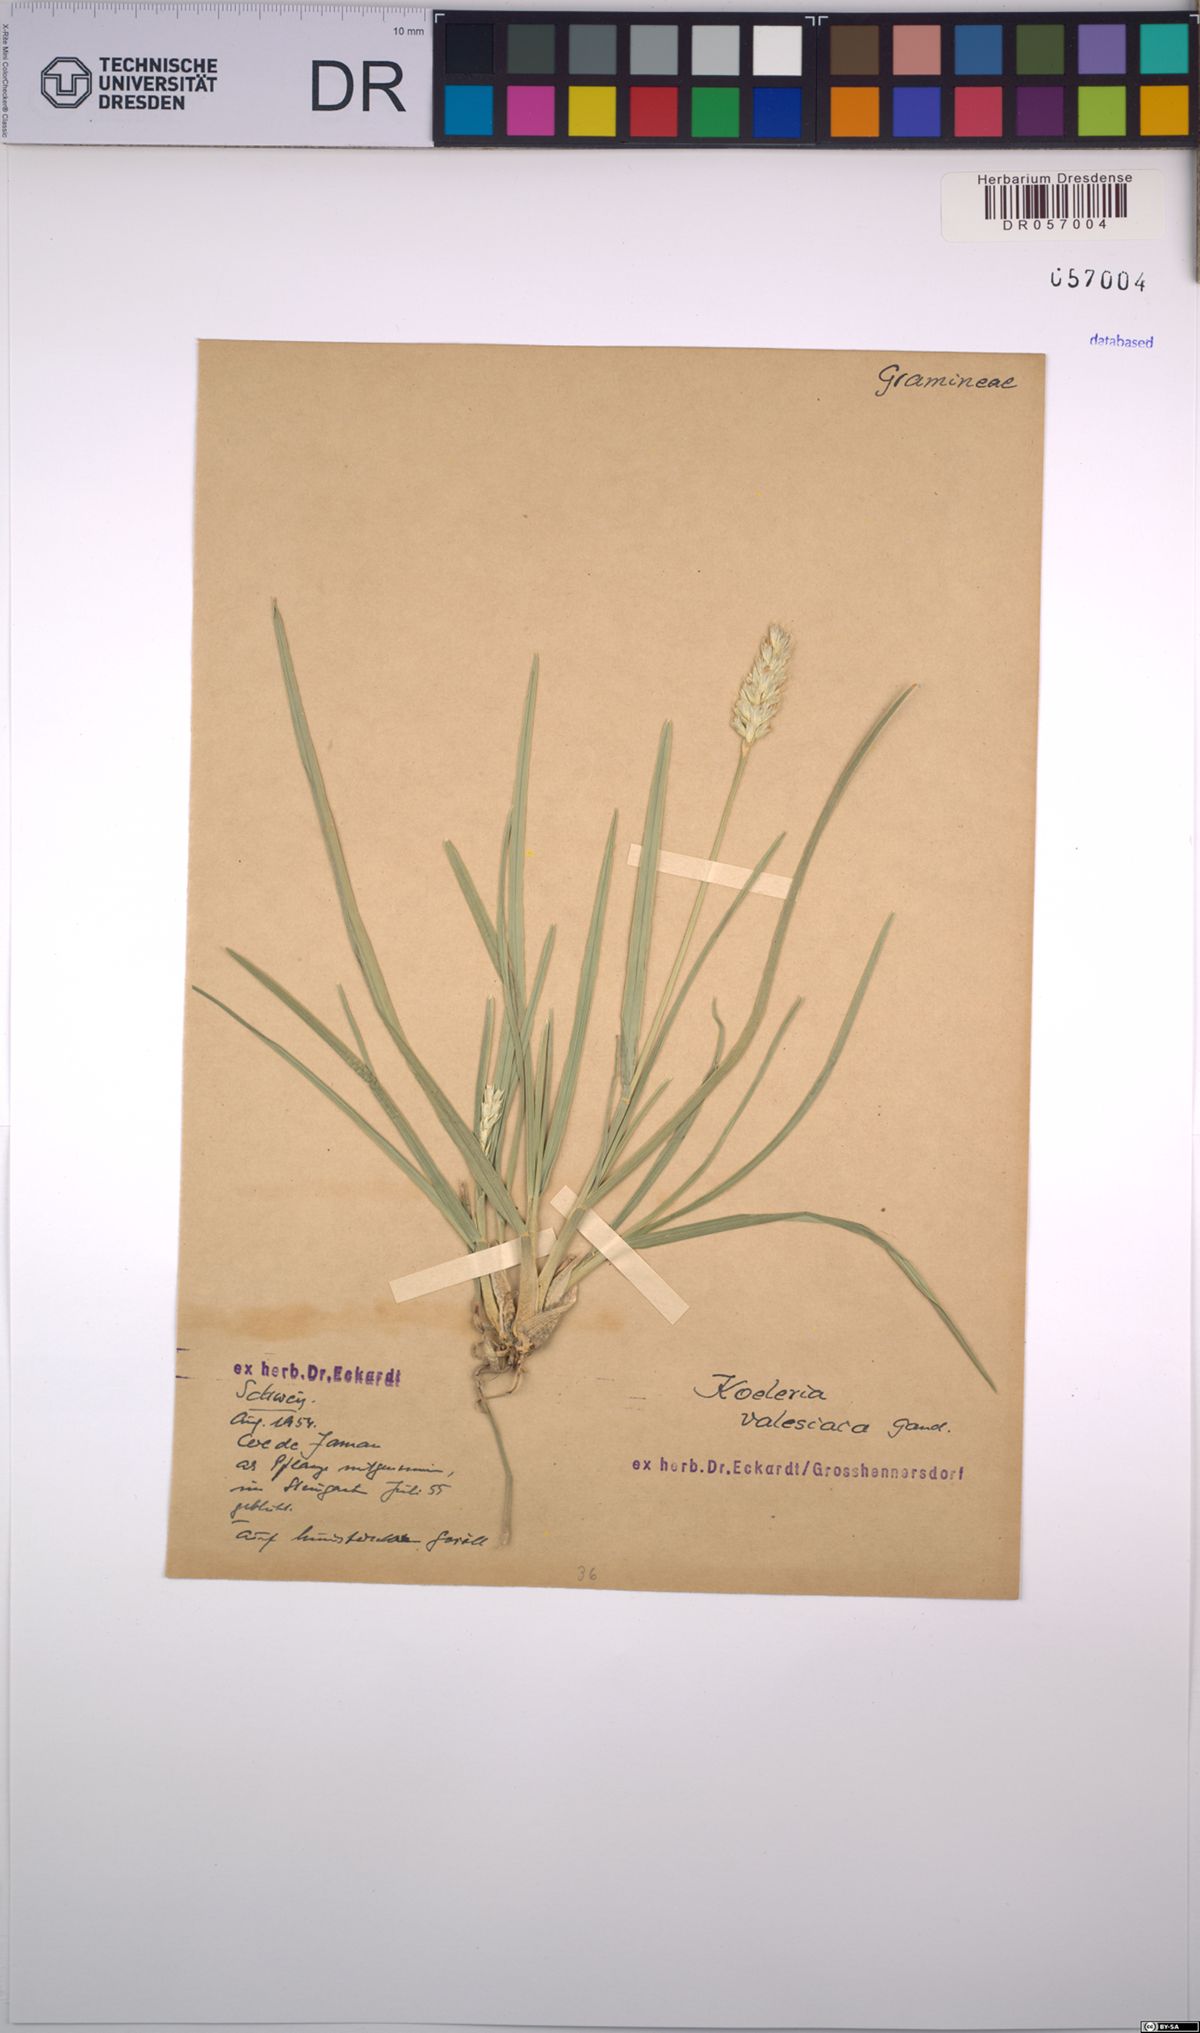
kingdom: Plantae
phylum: Tracheophyta
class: Liliopsida
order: Poales
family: Poaceae
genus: Koeleria
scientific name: Koeleria vallesiana
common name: Somerset hair-grass
